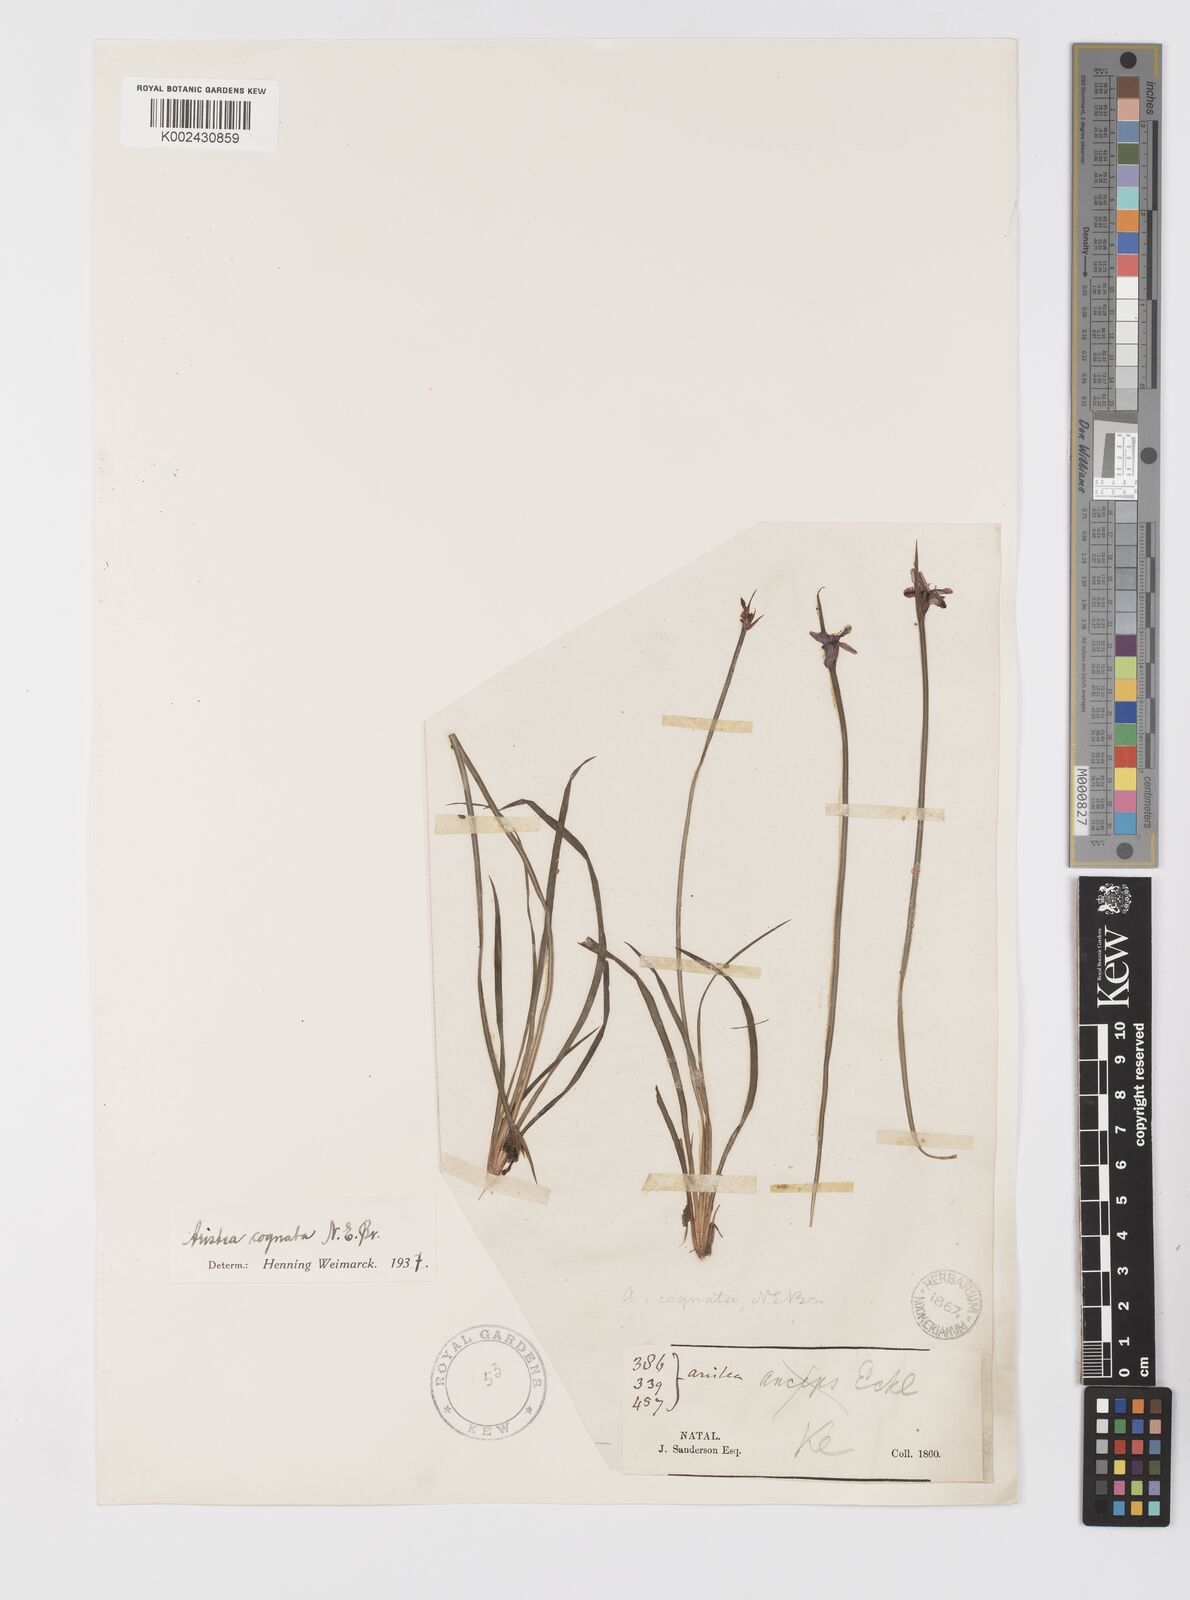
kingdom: Plantae
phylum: Tracheophyta
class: Liliopsida
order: Asparagales
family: Iridaceae
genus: Aristea
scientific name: Aristea abyssinica
